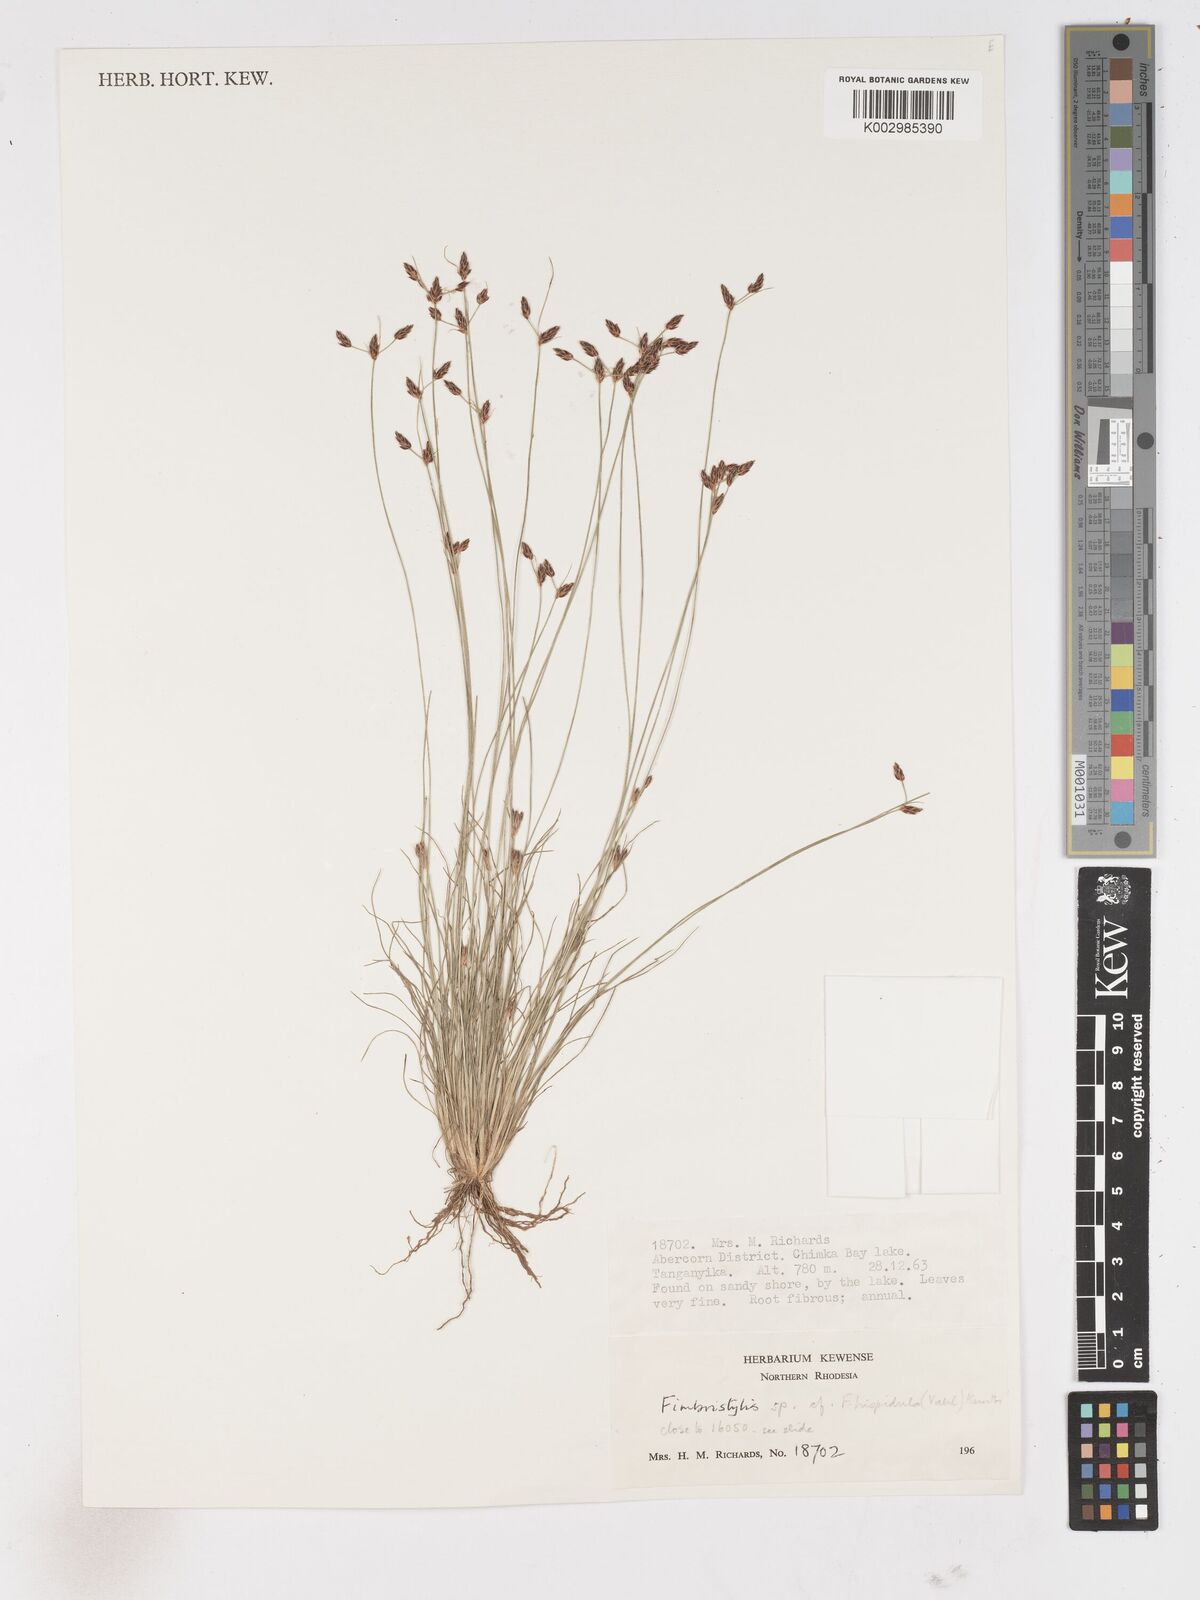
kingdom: Plantae
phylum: Tracheophyta
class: Liliopsida
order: Poales
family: Cyperaceae
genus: Fimbristylis
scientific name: Fimbristylis
